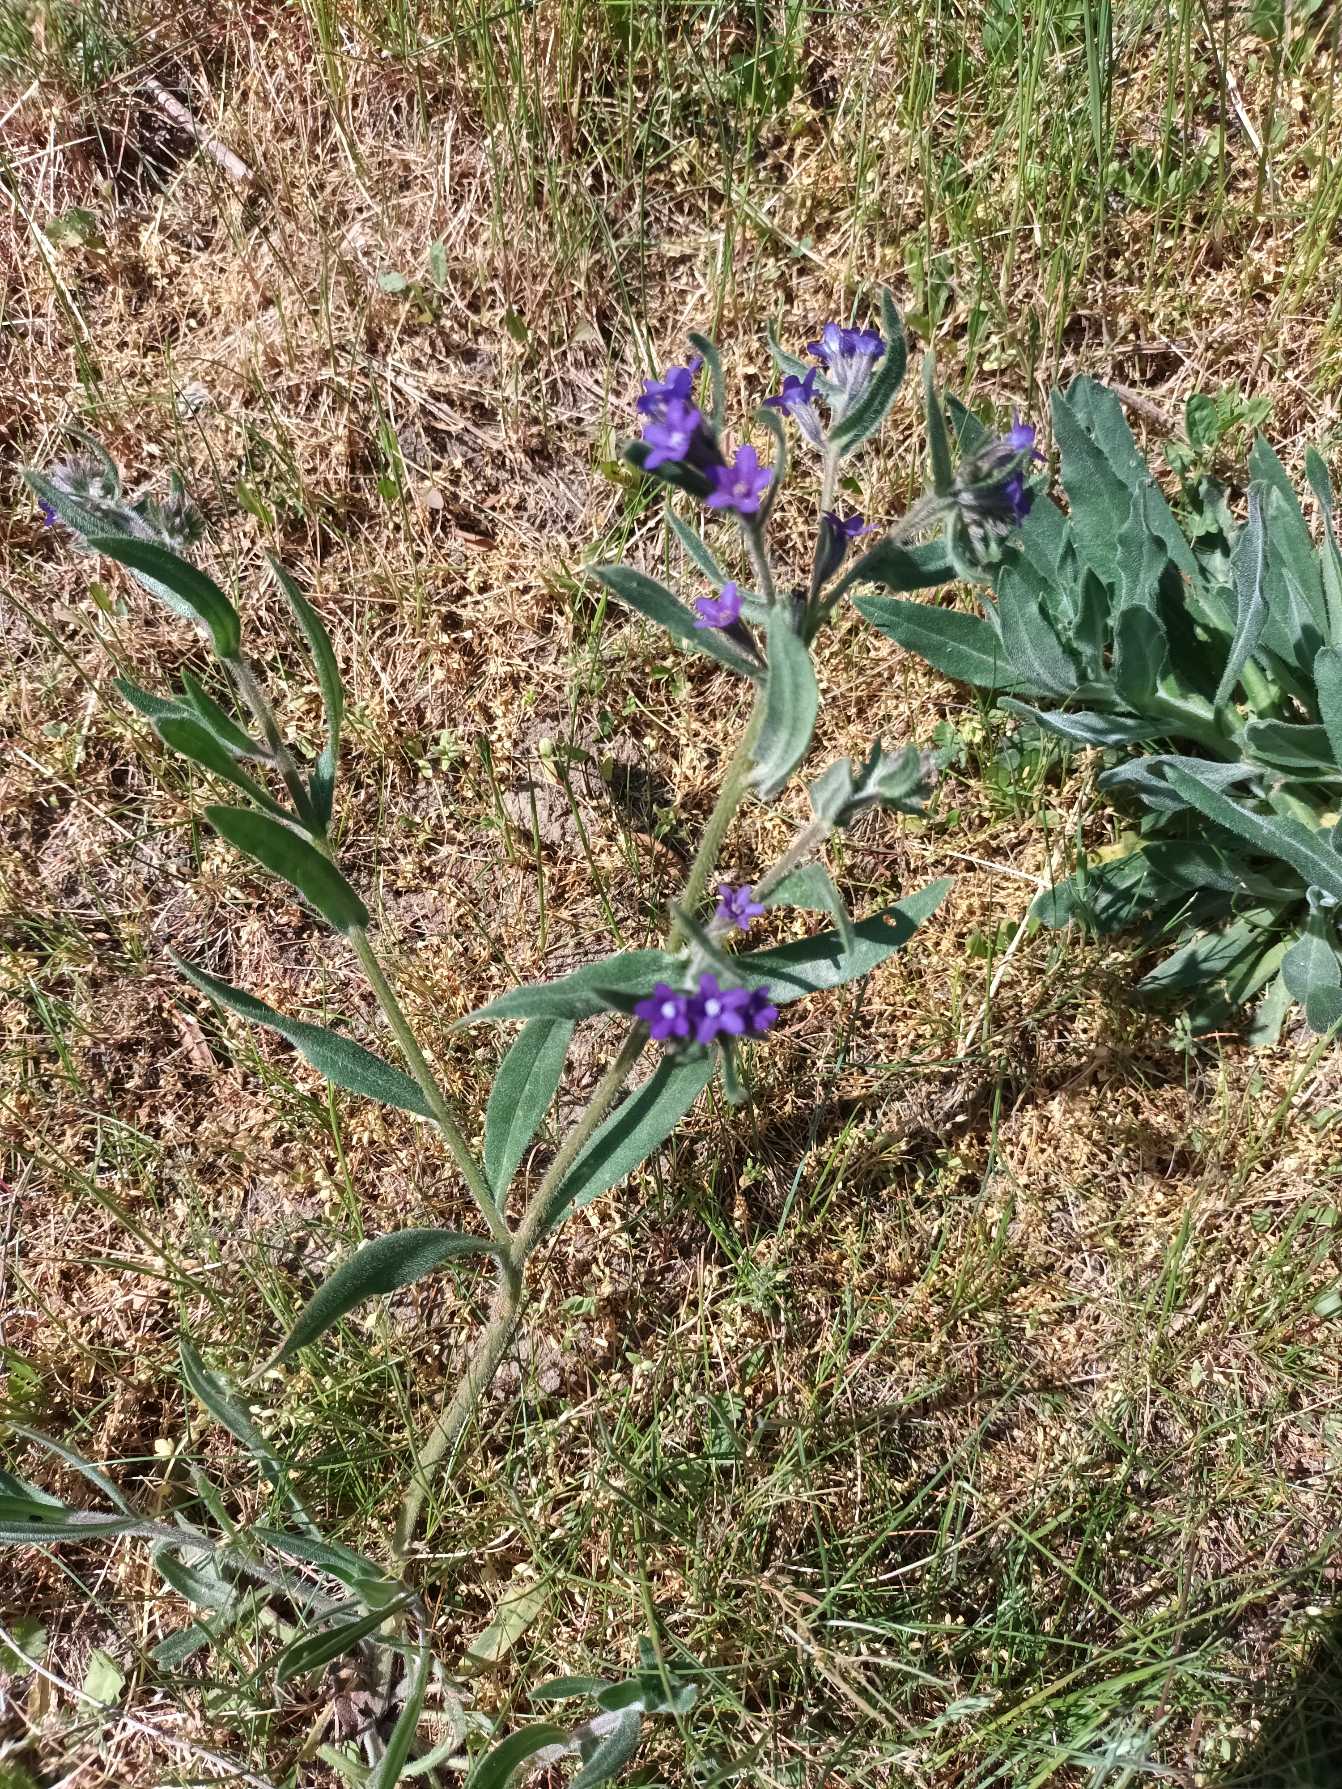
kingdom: Plantae
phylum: Tracheophyta
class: Magnoliopsida
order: Boraginales
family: Boraginaceae
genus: Anchusa
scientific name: Anchusa officinalis
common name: Læge-oksetunge
